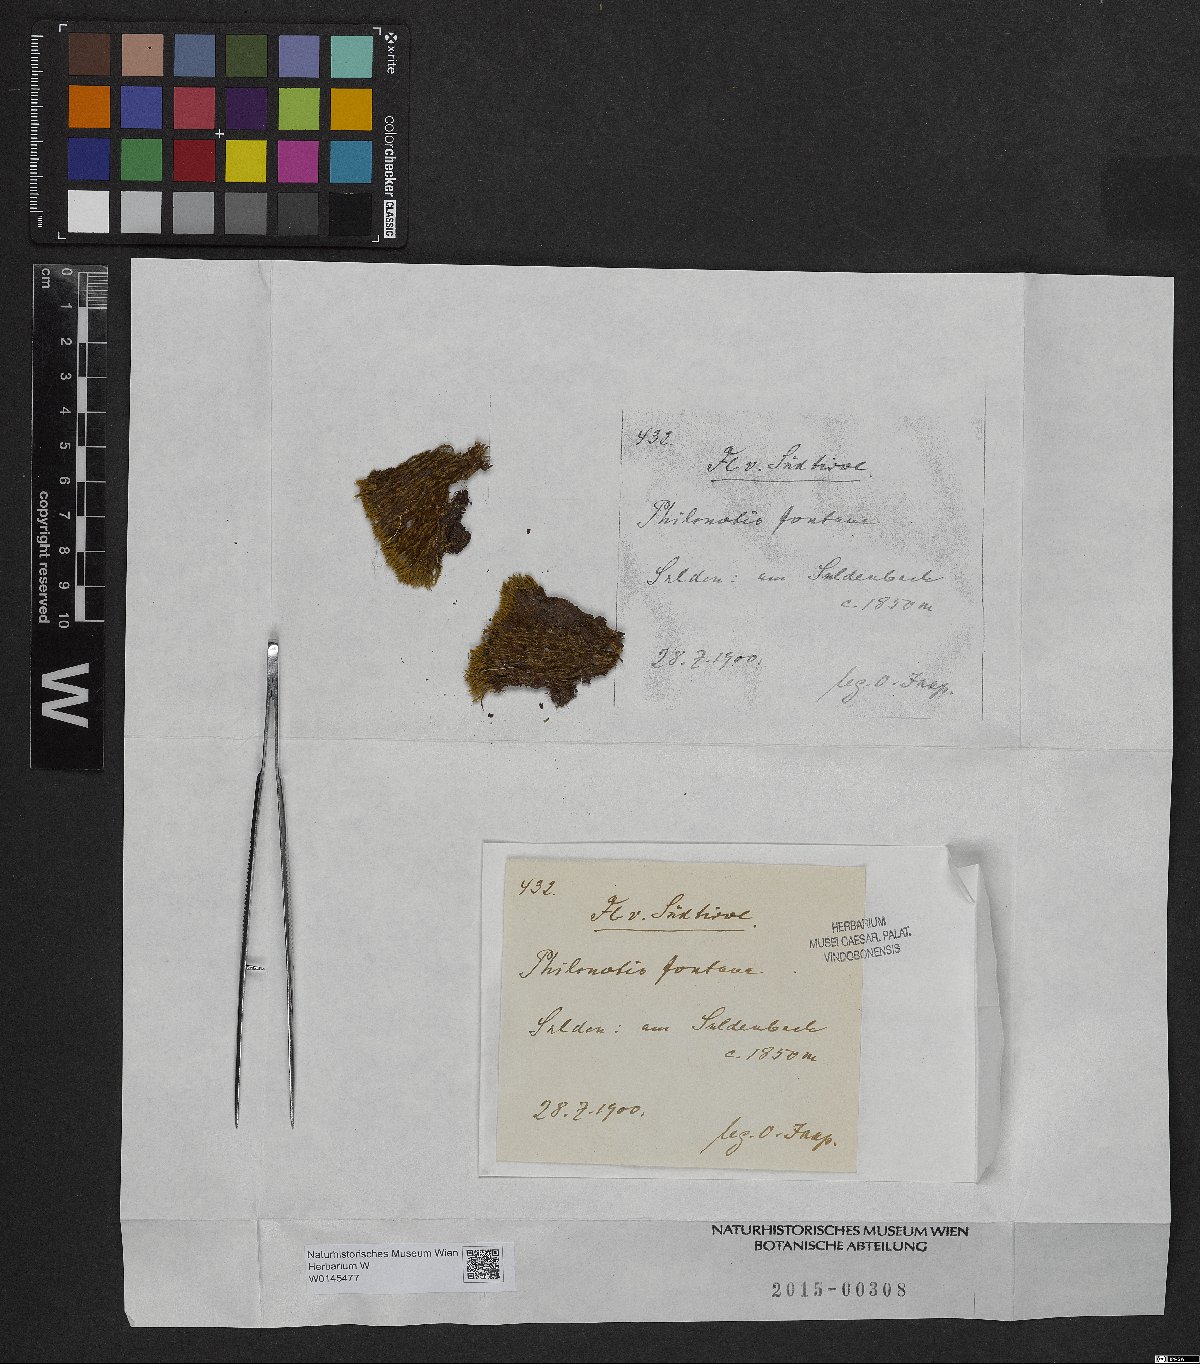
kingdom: Plantae
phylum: Bryophyta
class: Bryopsida
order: Bartramiales
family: Bartramiaceae
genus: Philonotis
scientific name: Philonotis fontana
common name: Fountain apple-moss
